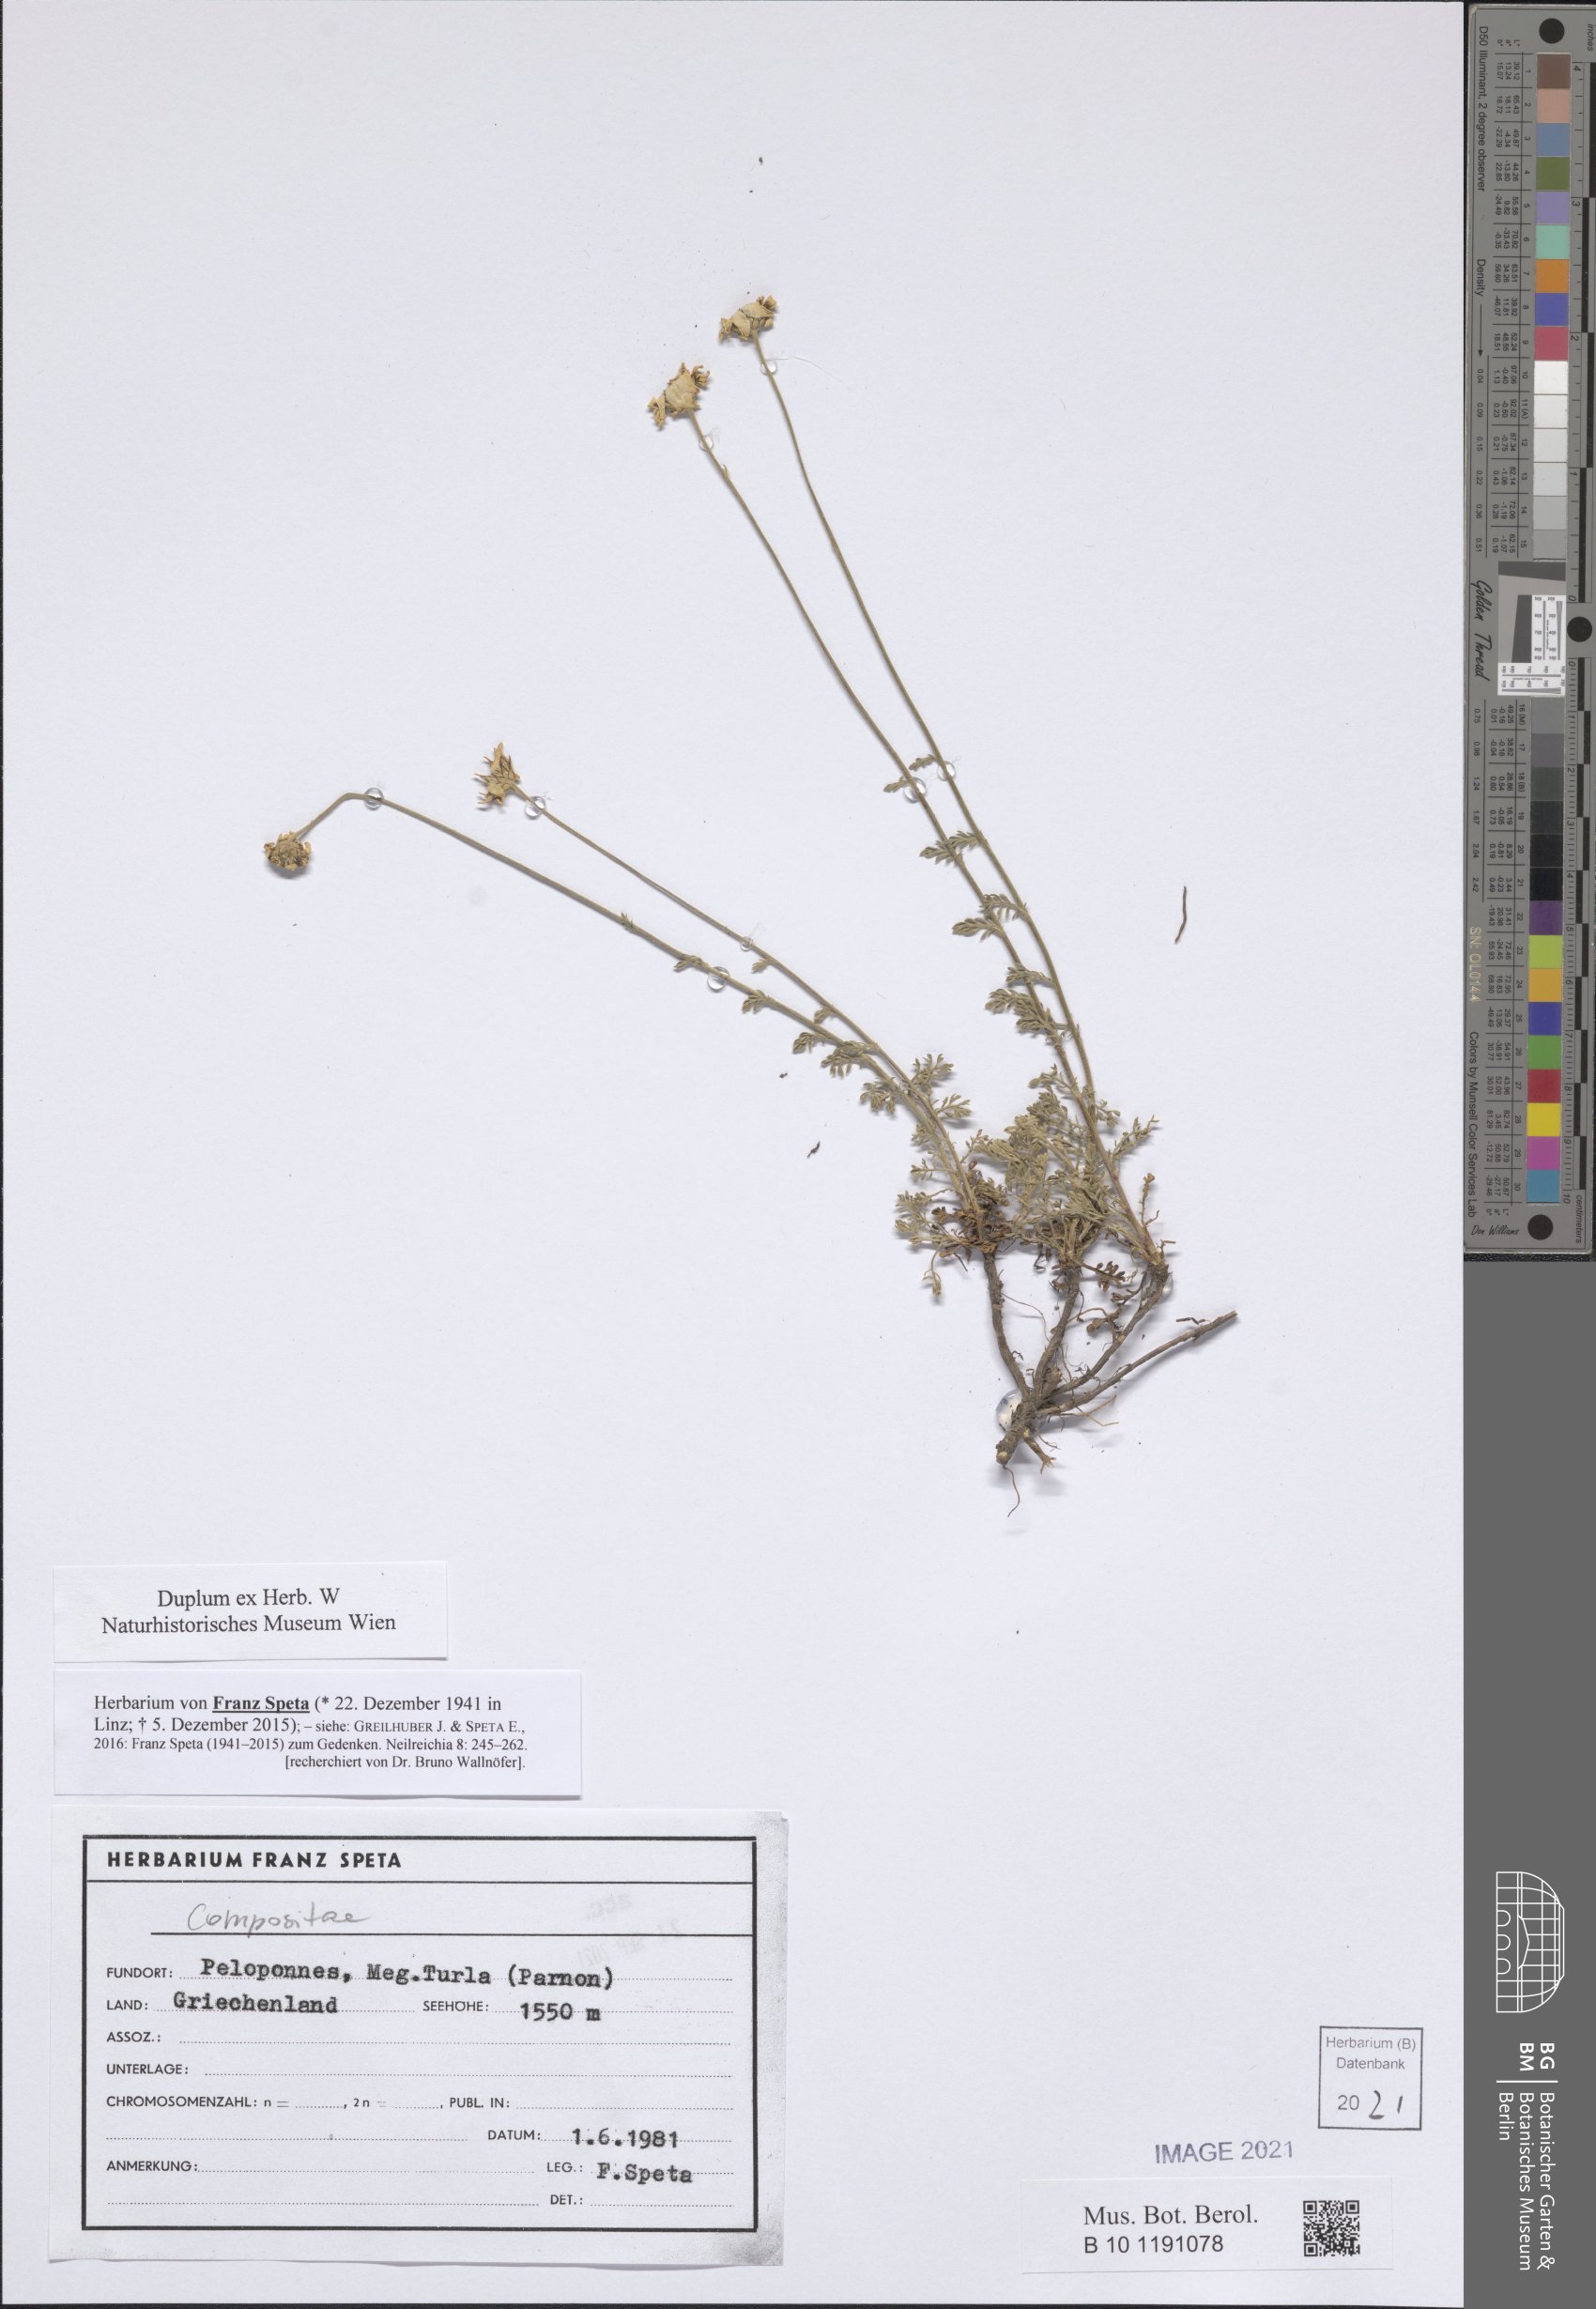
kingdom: Plantae
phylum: Tracheophyta
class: Magnoliopsida
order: Asterales
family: Asteraceae
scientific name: Asteraceae
